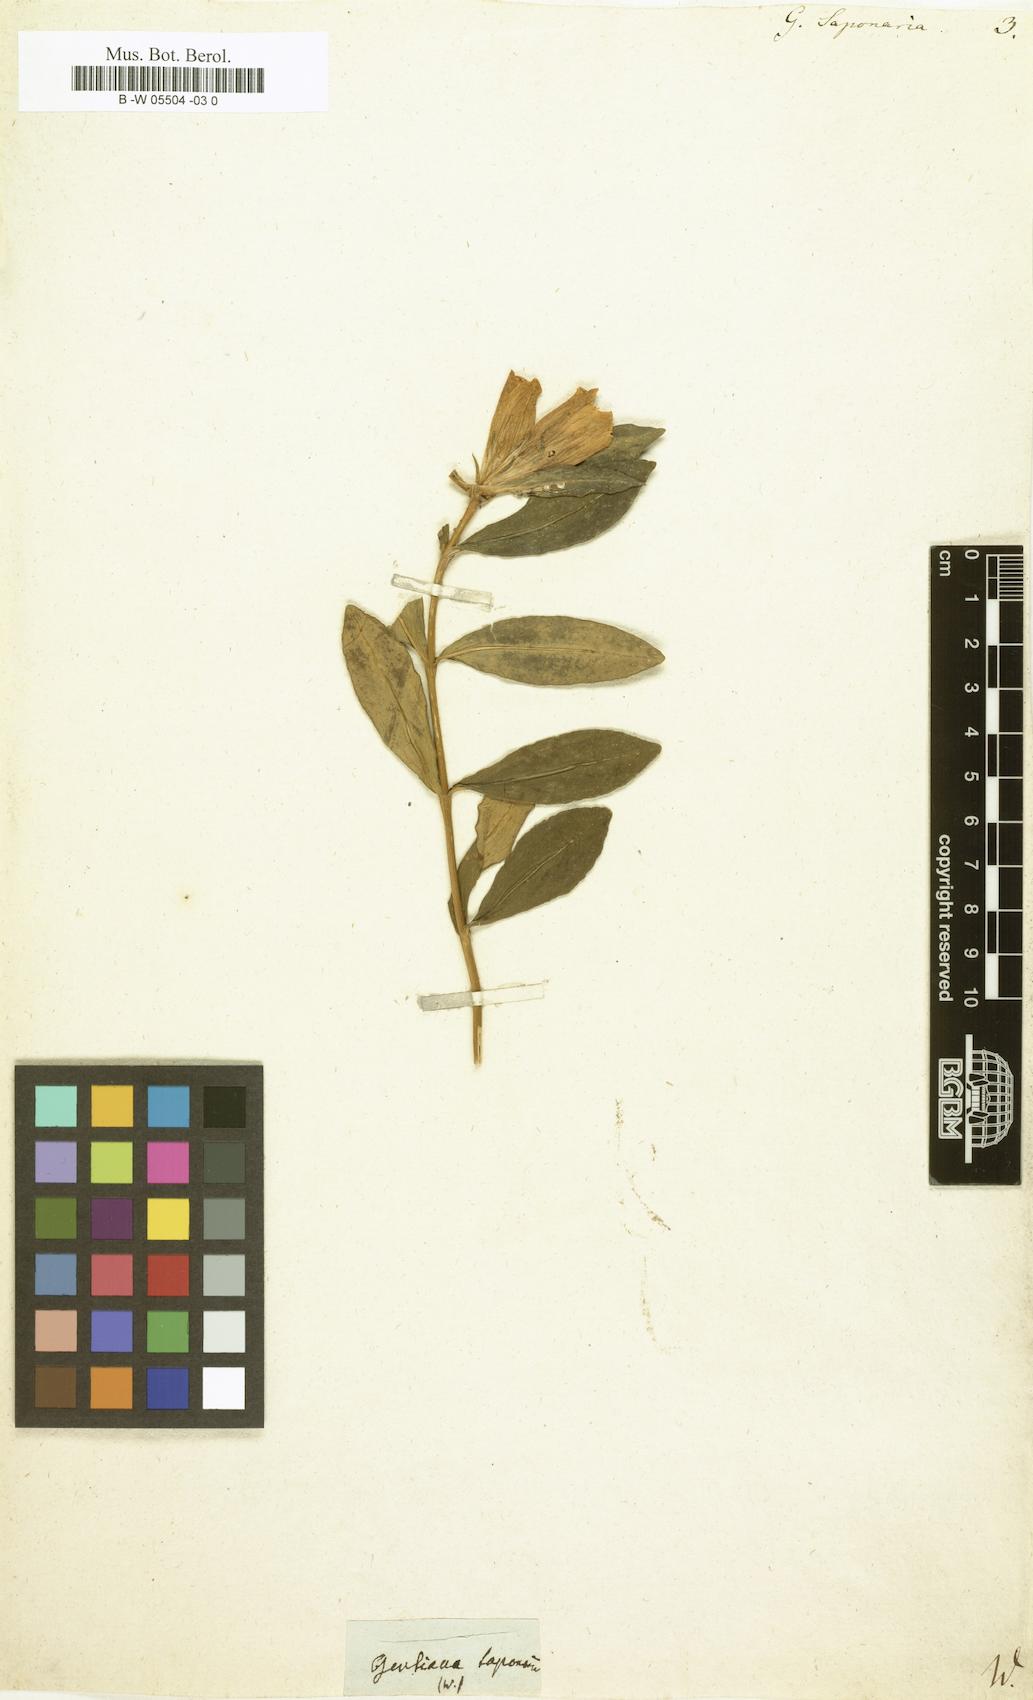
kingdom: Plantae
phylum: Tracheophyta
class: Magnoliopsida
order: Gentianales
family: Gentianaceae
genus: Gentiana
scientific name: Gentiana saponaria
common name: Soapwort gentian
